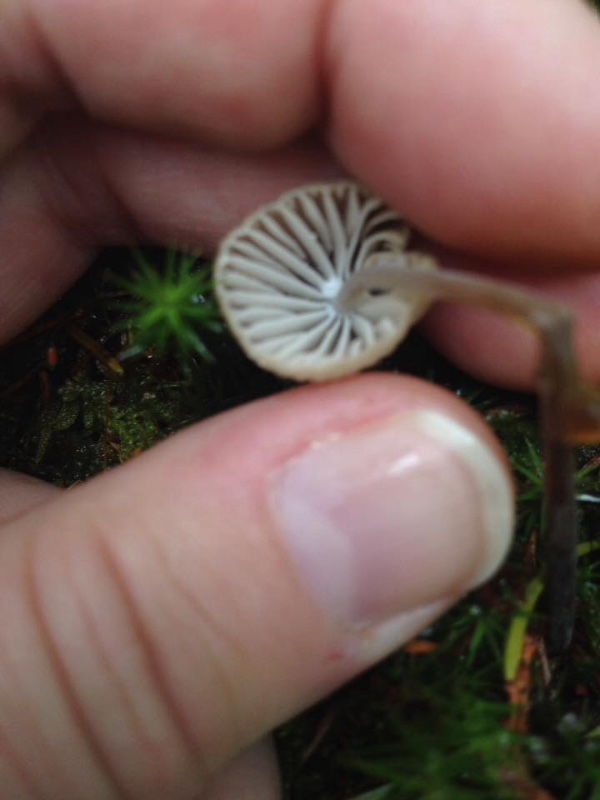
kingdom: Fungi
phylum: Basidiomycota
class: Agaricomycetes
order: Agaricales
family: Mycenaceae
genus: Mycena
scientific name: Mycena galopus
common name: hvidmælket huesvamp
